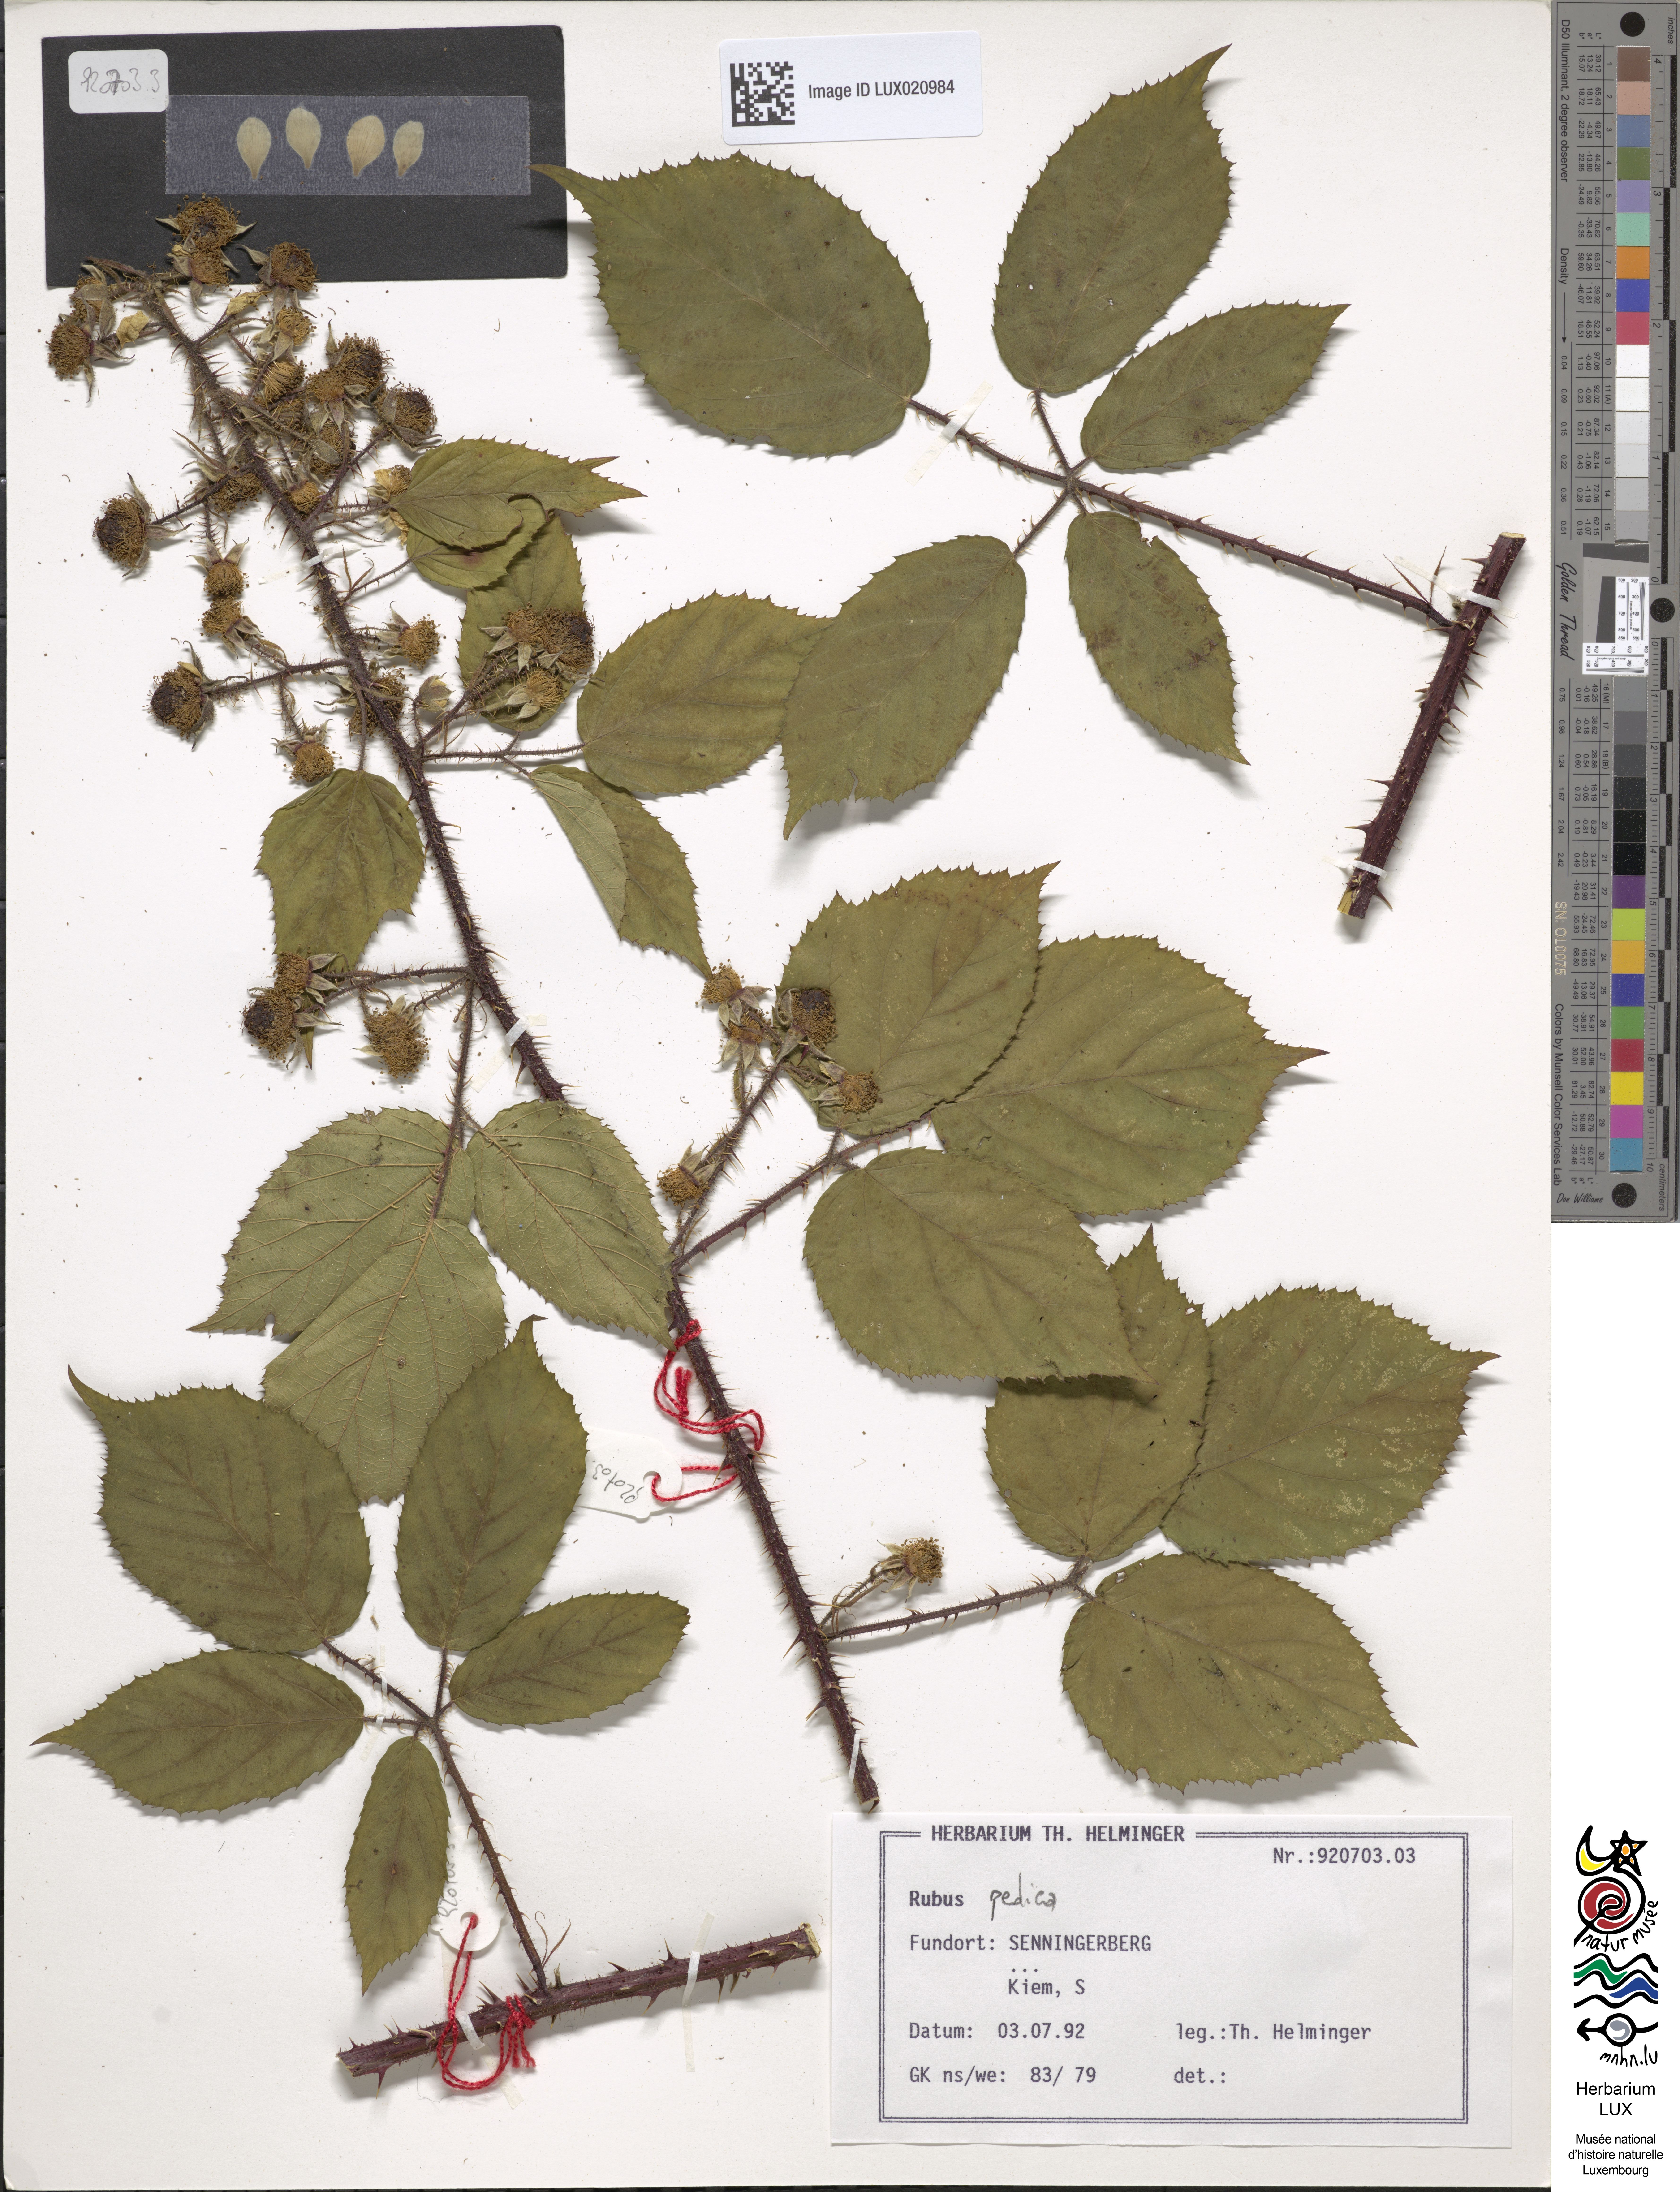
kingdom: Plantae
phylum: Tracheophyta
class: Magnoliopsida
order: Rosales
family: Rosaceae
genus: Rubus
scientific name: Rubus
